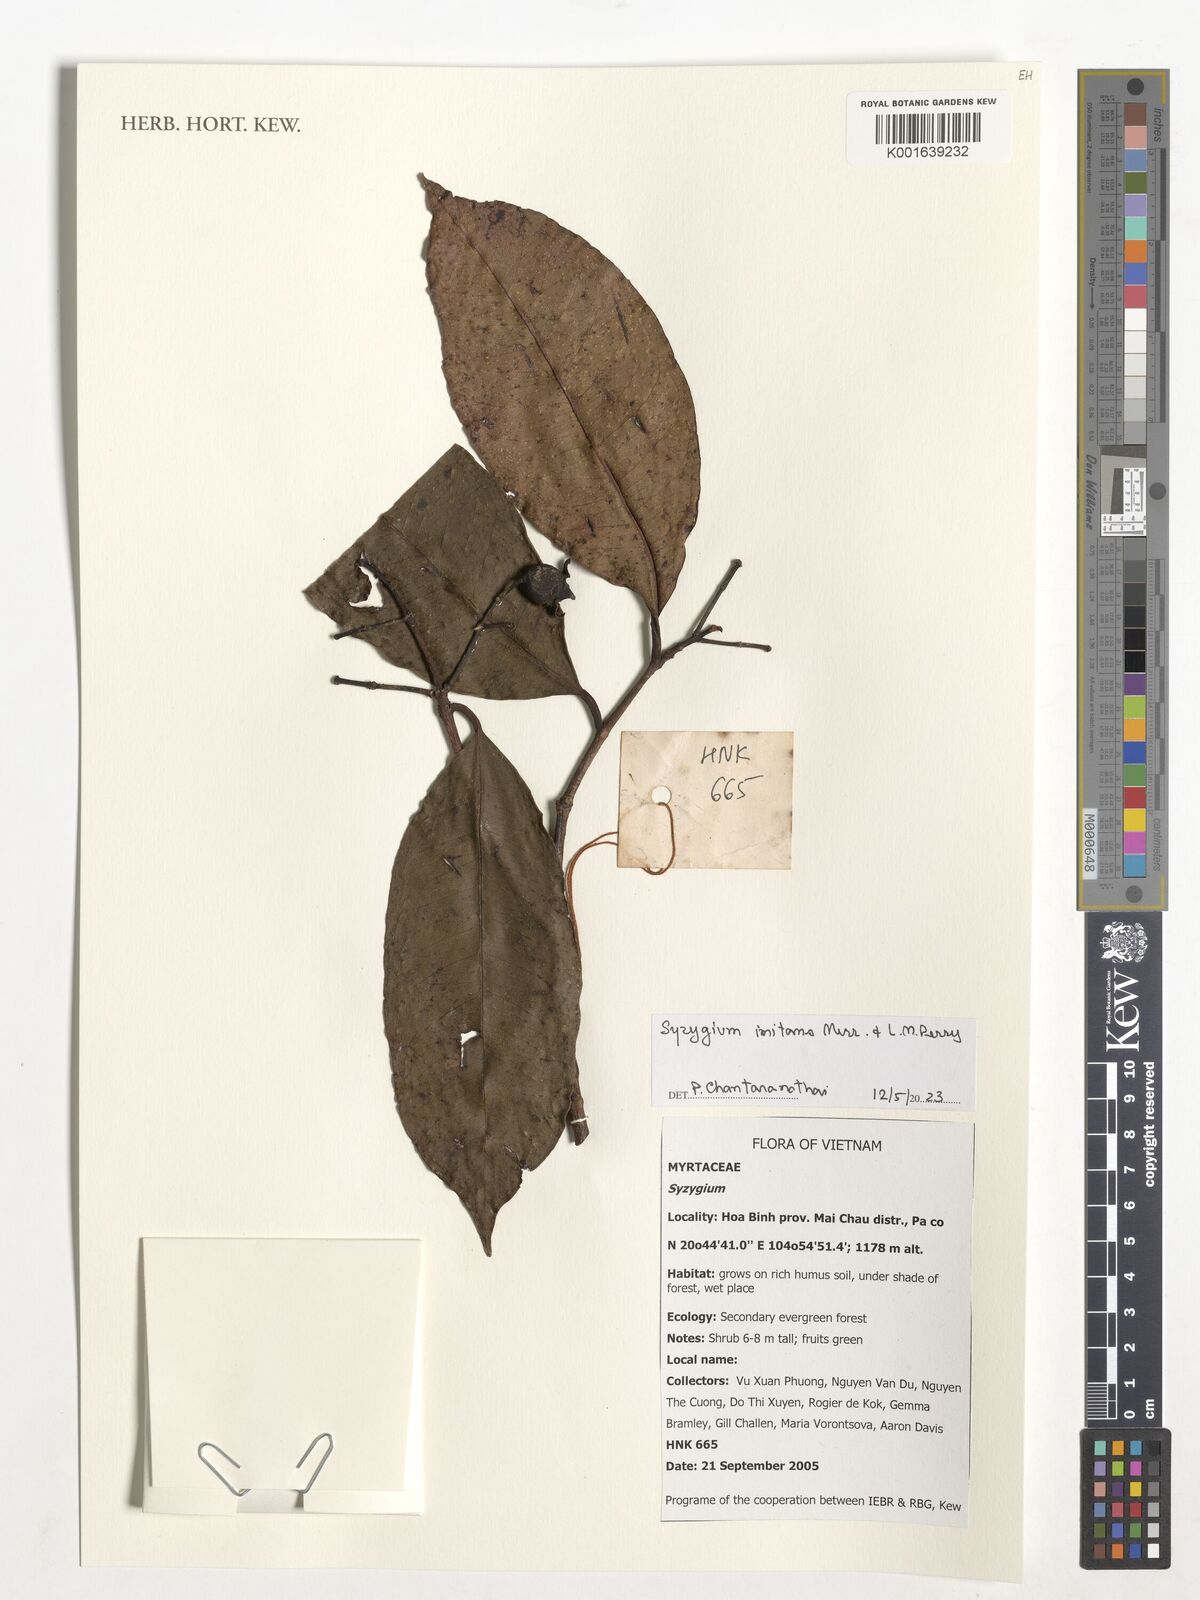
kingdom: Plantae
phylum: Tracheophyta
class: Magnoliopsida
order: Myrtales
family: Myrtaceae
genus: Syzygium
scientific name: Syzygium imitans
